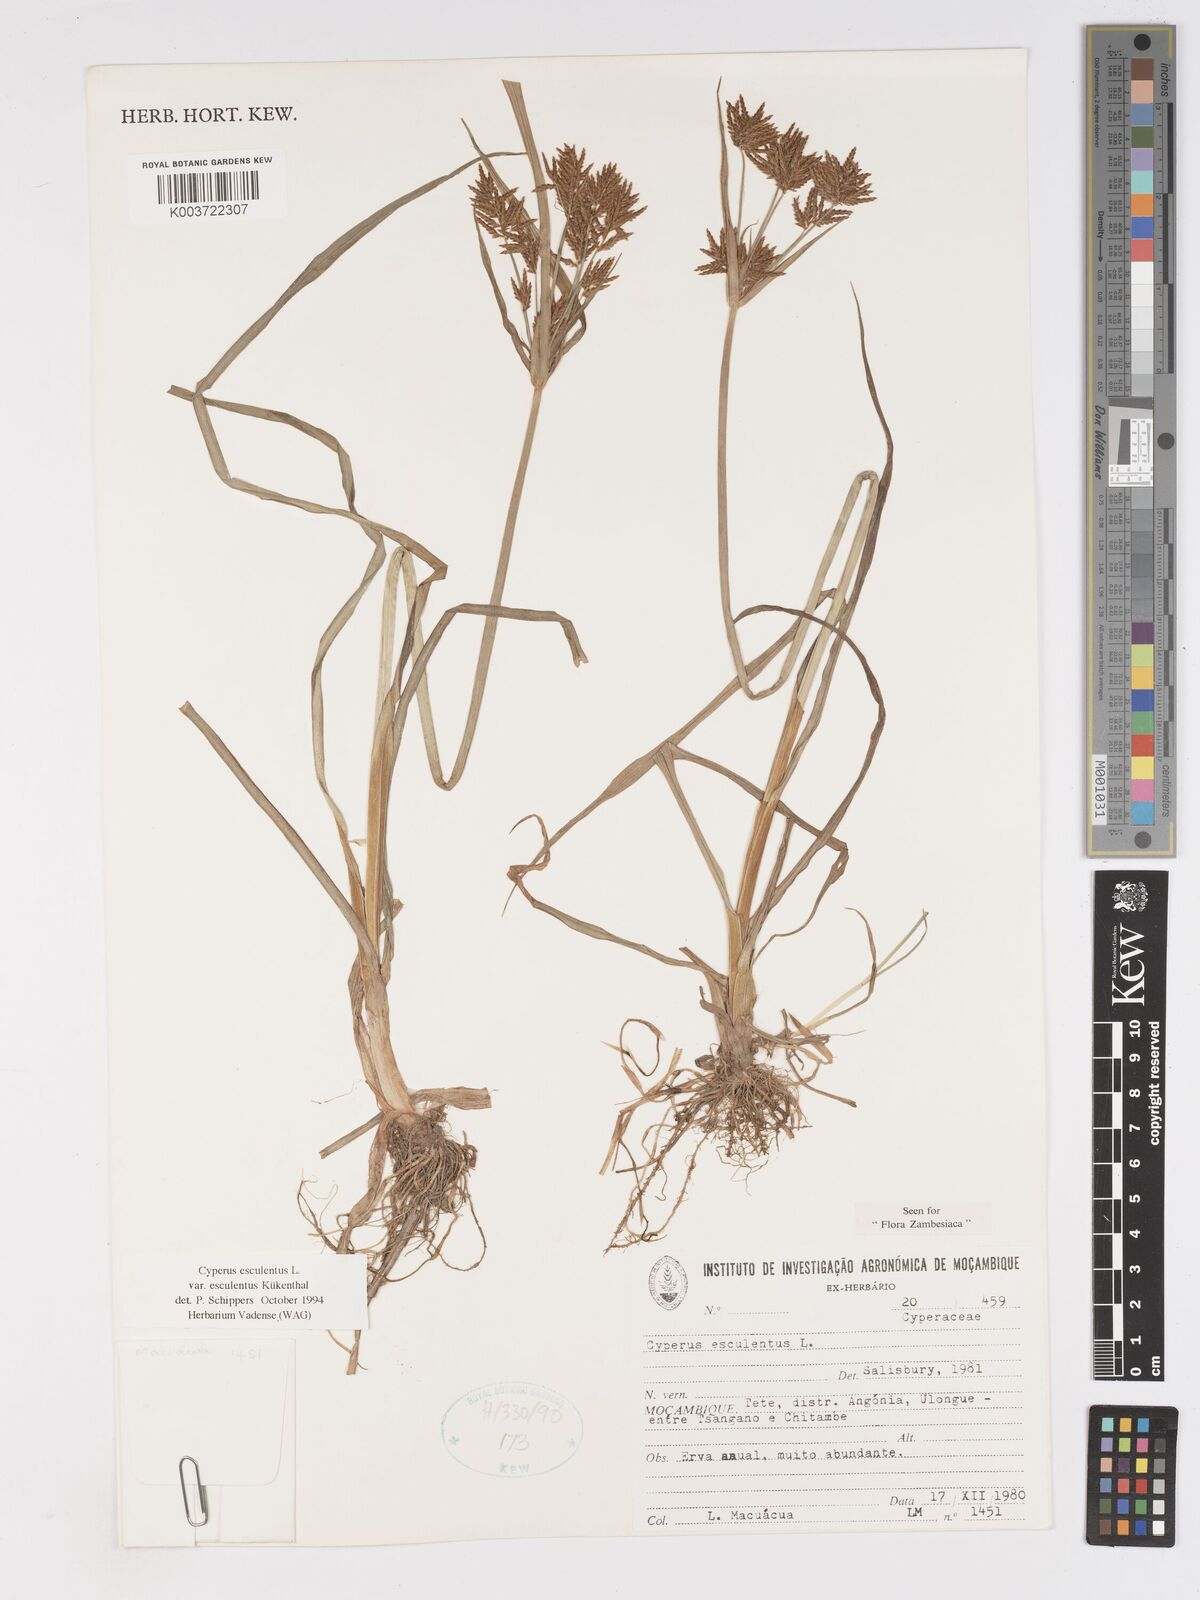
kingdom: Plantae
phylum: Tracheophyta
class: Liliopsida
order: Poales
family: Cyperaceae
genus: Cyperus
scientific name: Cyperus esculentus
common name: Yellow nutsedge
